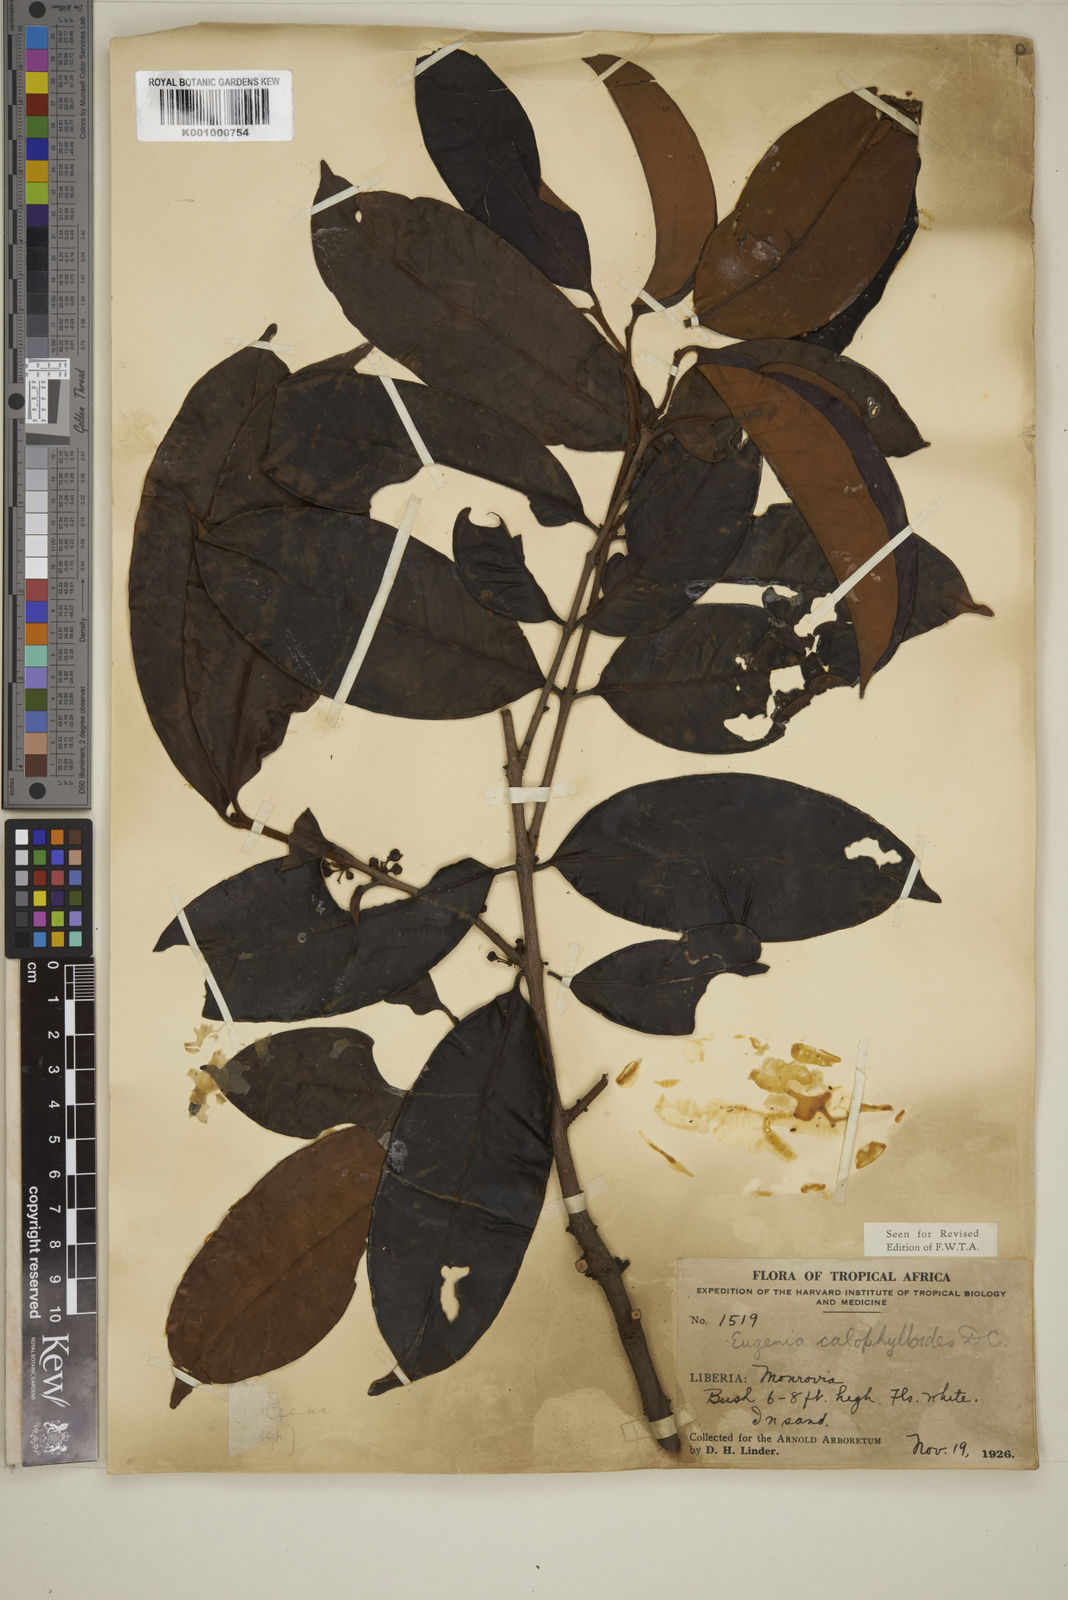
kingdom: Plantae
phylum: Tracheophyta
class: Magnoliopsida
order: Myrtales
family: Myrtaceae
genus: Eugenia
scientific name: Eugenia calophylloides
